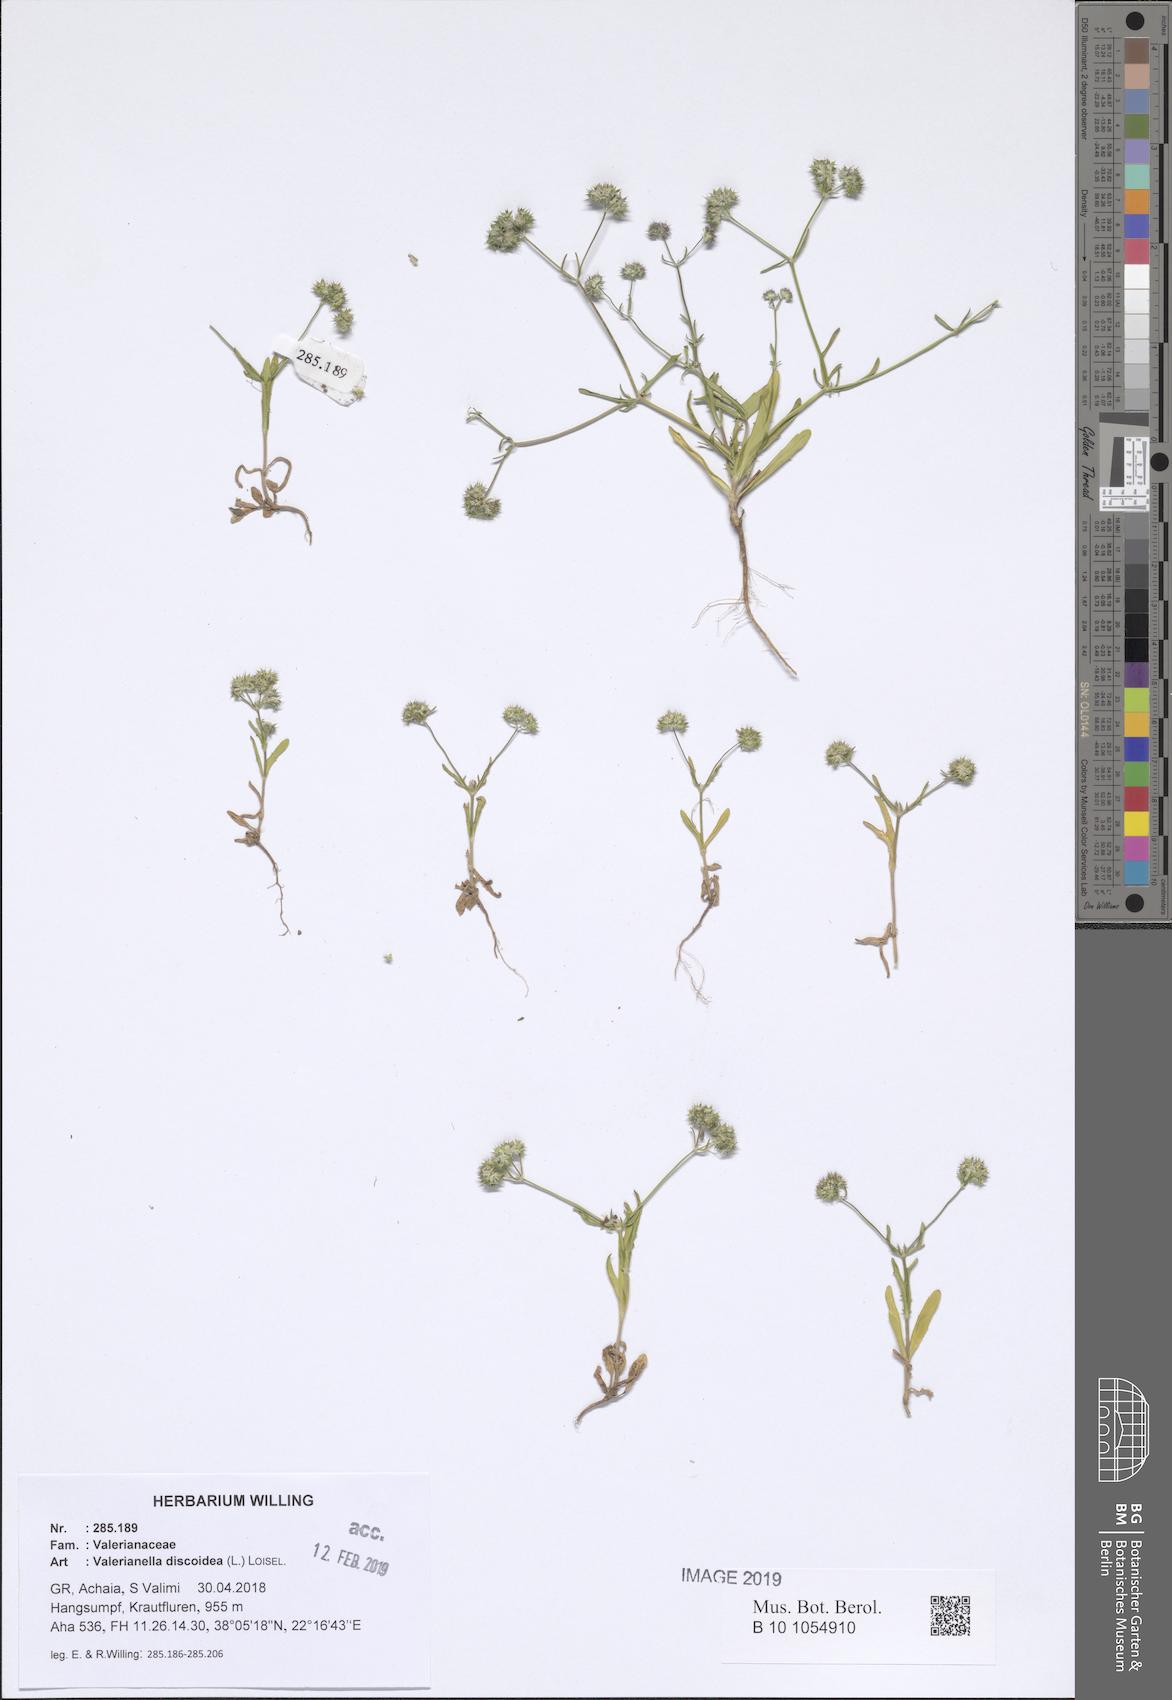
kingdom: Plantae
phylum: Tracheophyta
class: Magnoliopsida
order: Dipsacales
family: Caprifoliaceae
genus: Valerianella
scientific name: Valerianella discoidea
